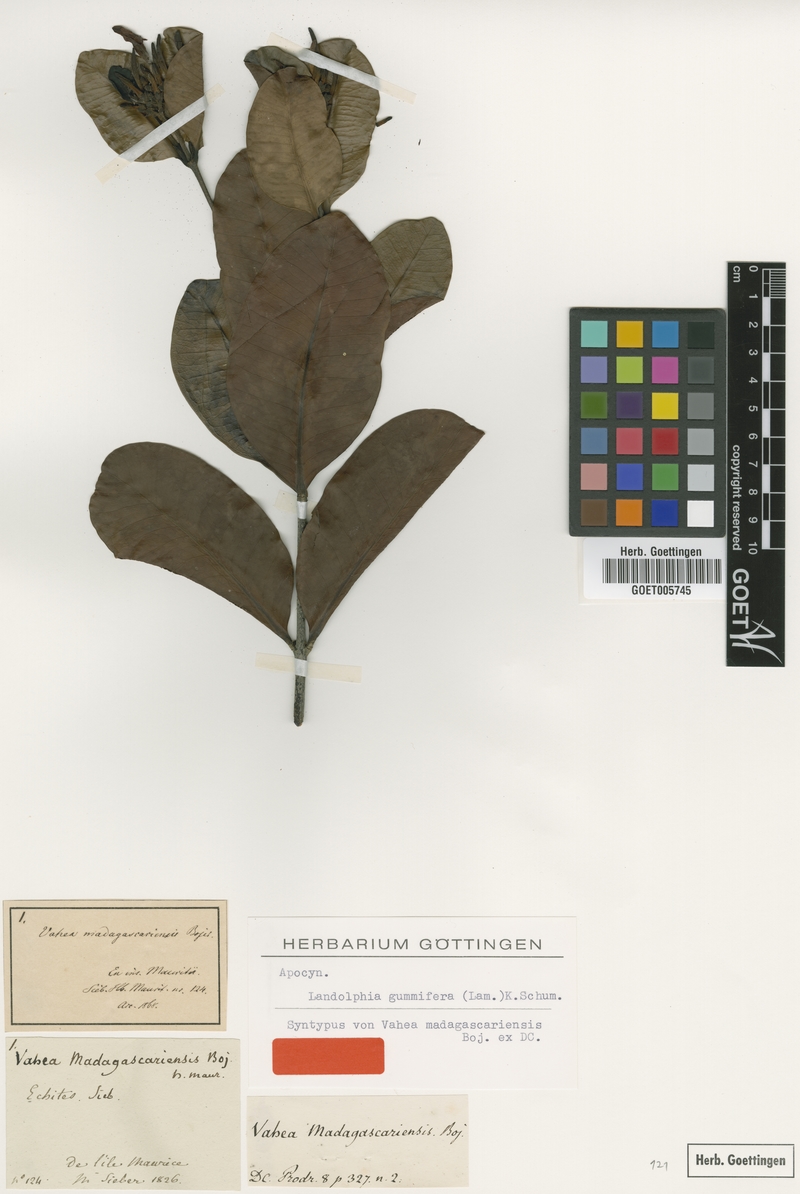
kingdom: Plantae
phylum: Tracheophyta
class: Magnoliopsida
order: Gentianales
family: Apocynaceae
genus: Landolphia
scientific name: Landolphia gummifera
